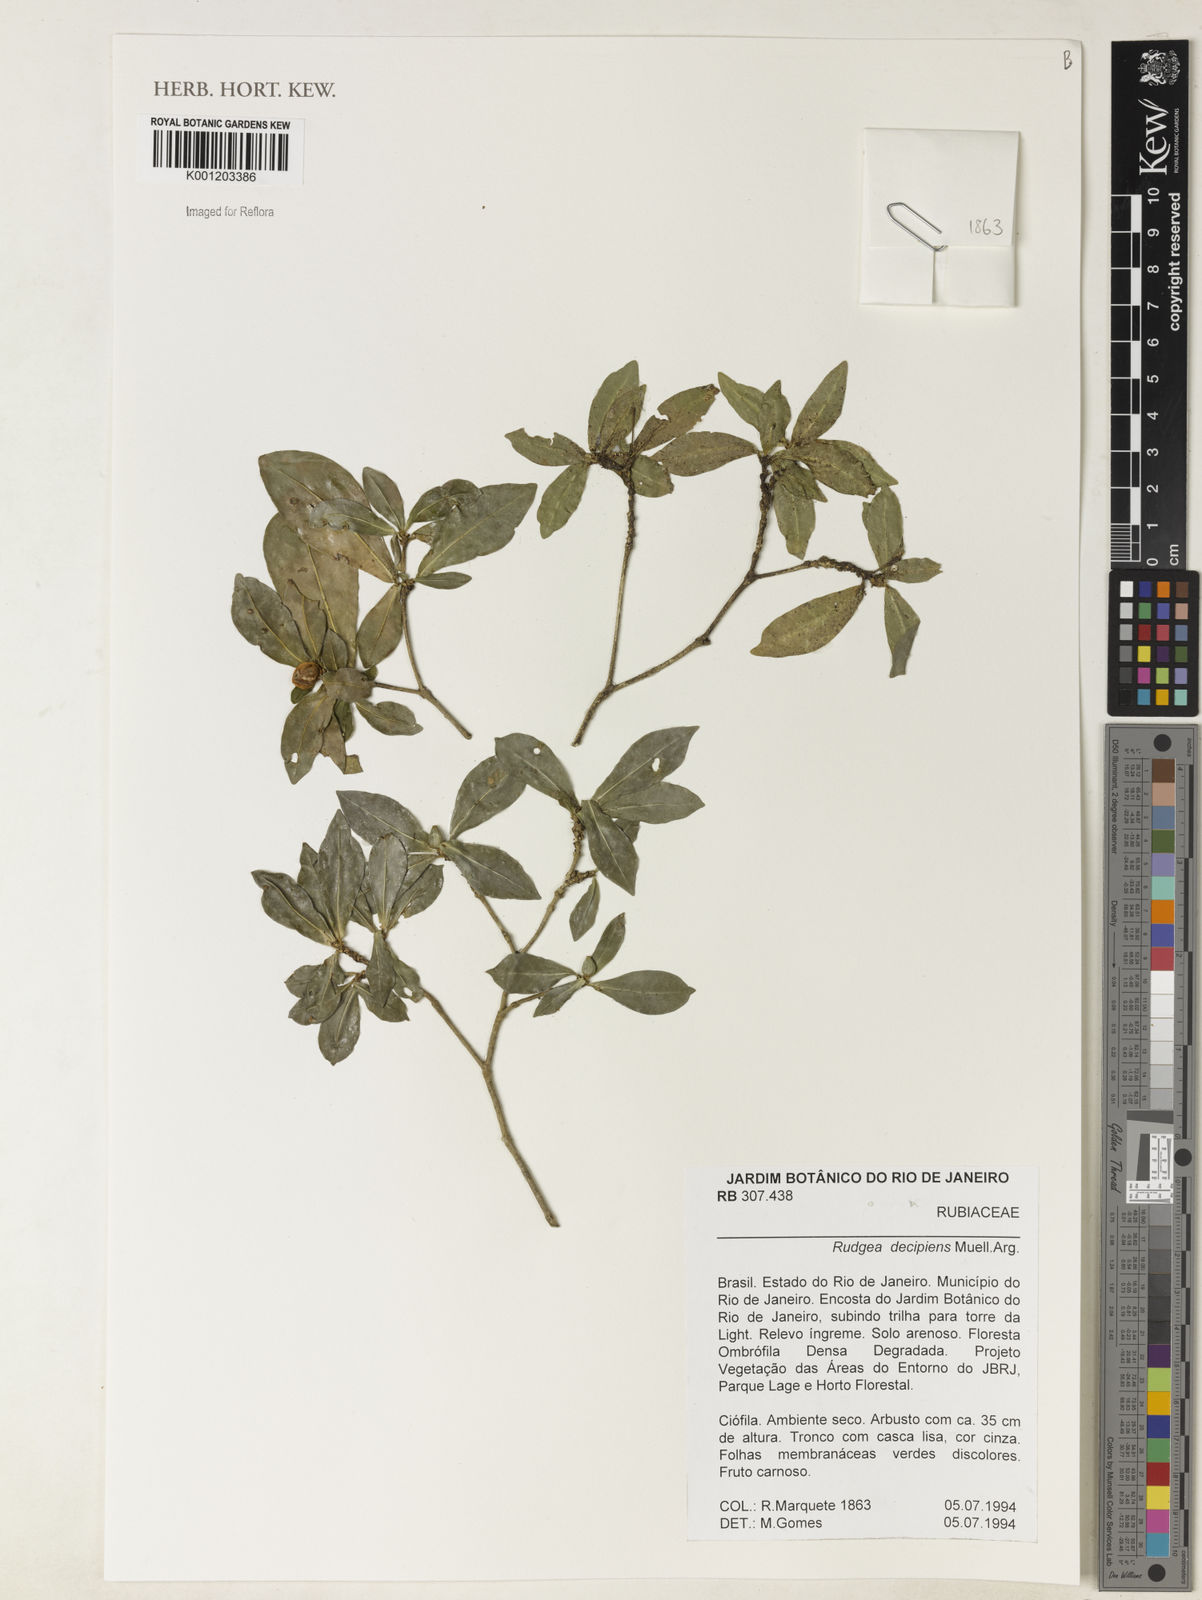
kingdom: Plantae
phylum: Tracheophyta
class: Magnoliopsida
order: Gentianales
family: Rubiaceae
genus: Rudgea
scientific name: Rudgea
